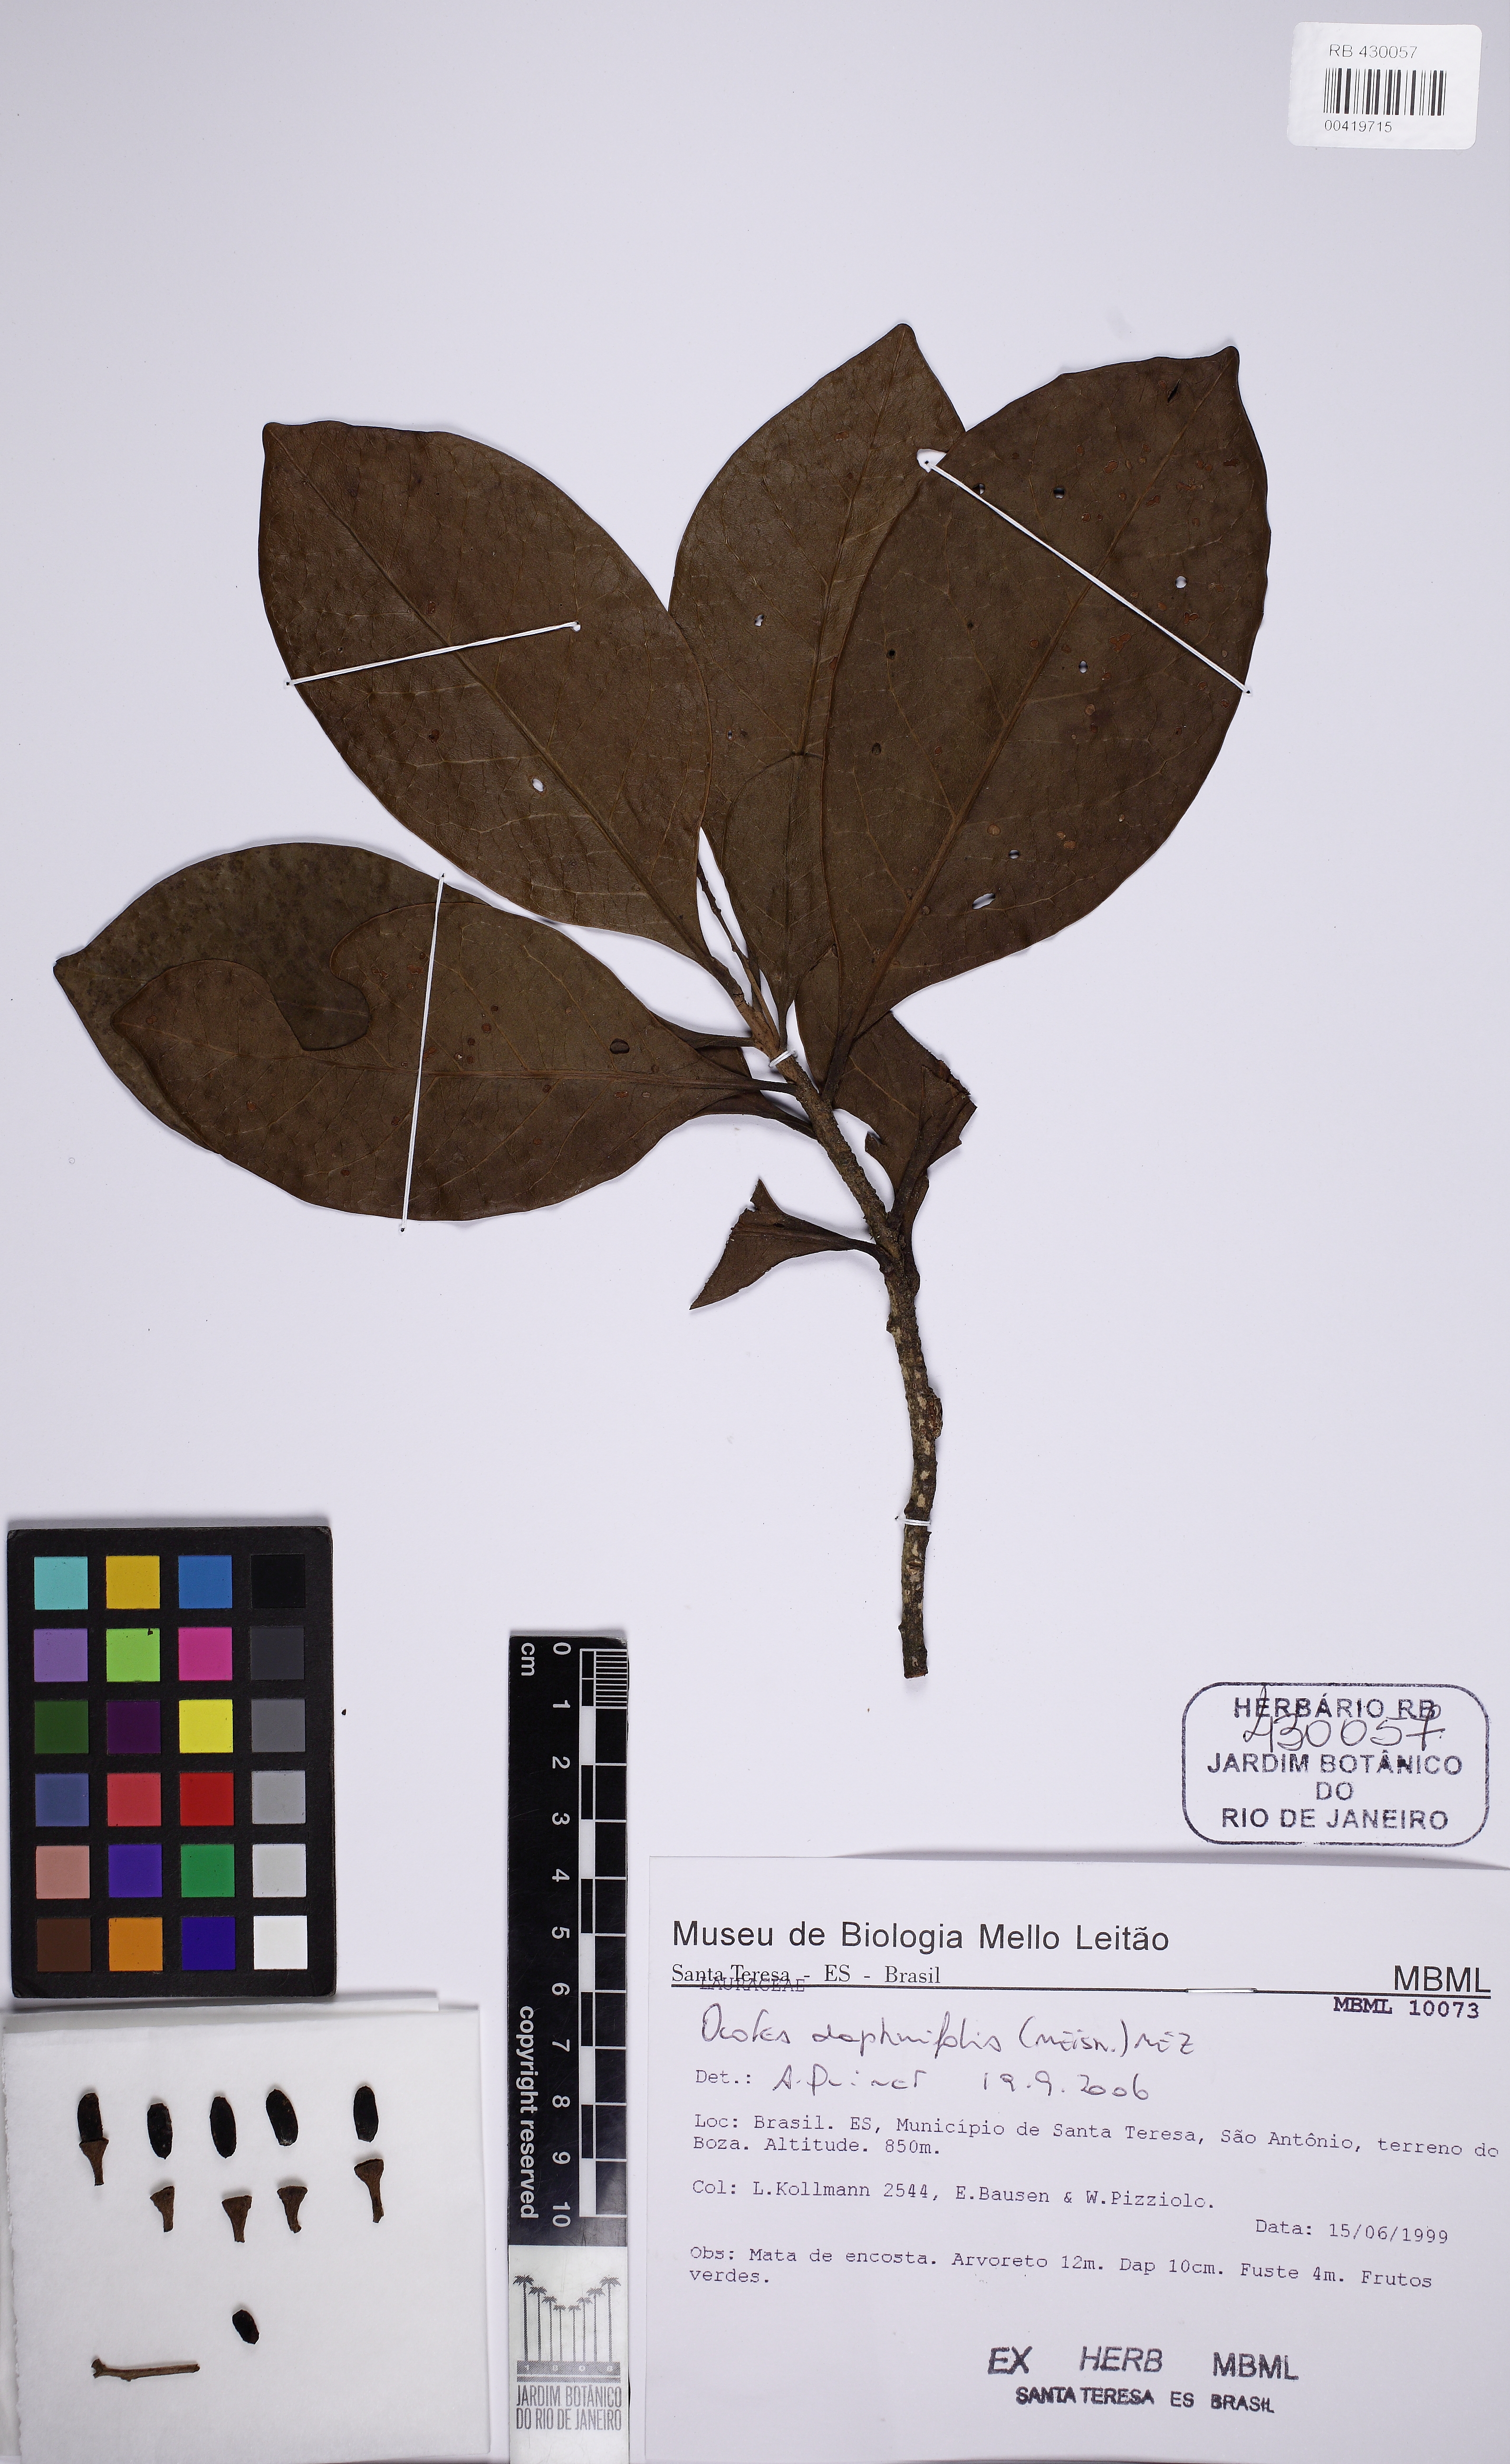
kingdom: Plantae
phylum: Tracheophyta
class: Magnoliopsida
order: Laurales
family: Lauraceae
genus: Ocotea
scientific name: Ocotea daphnifolia
